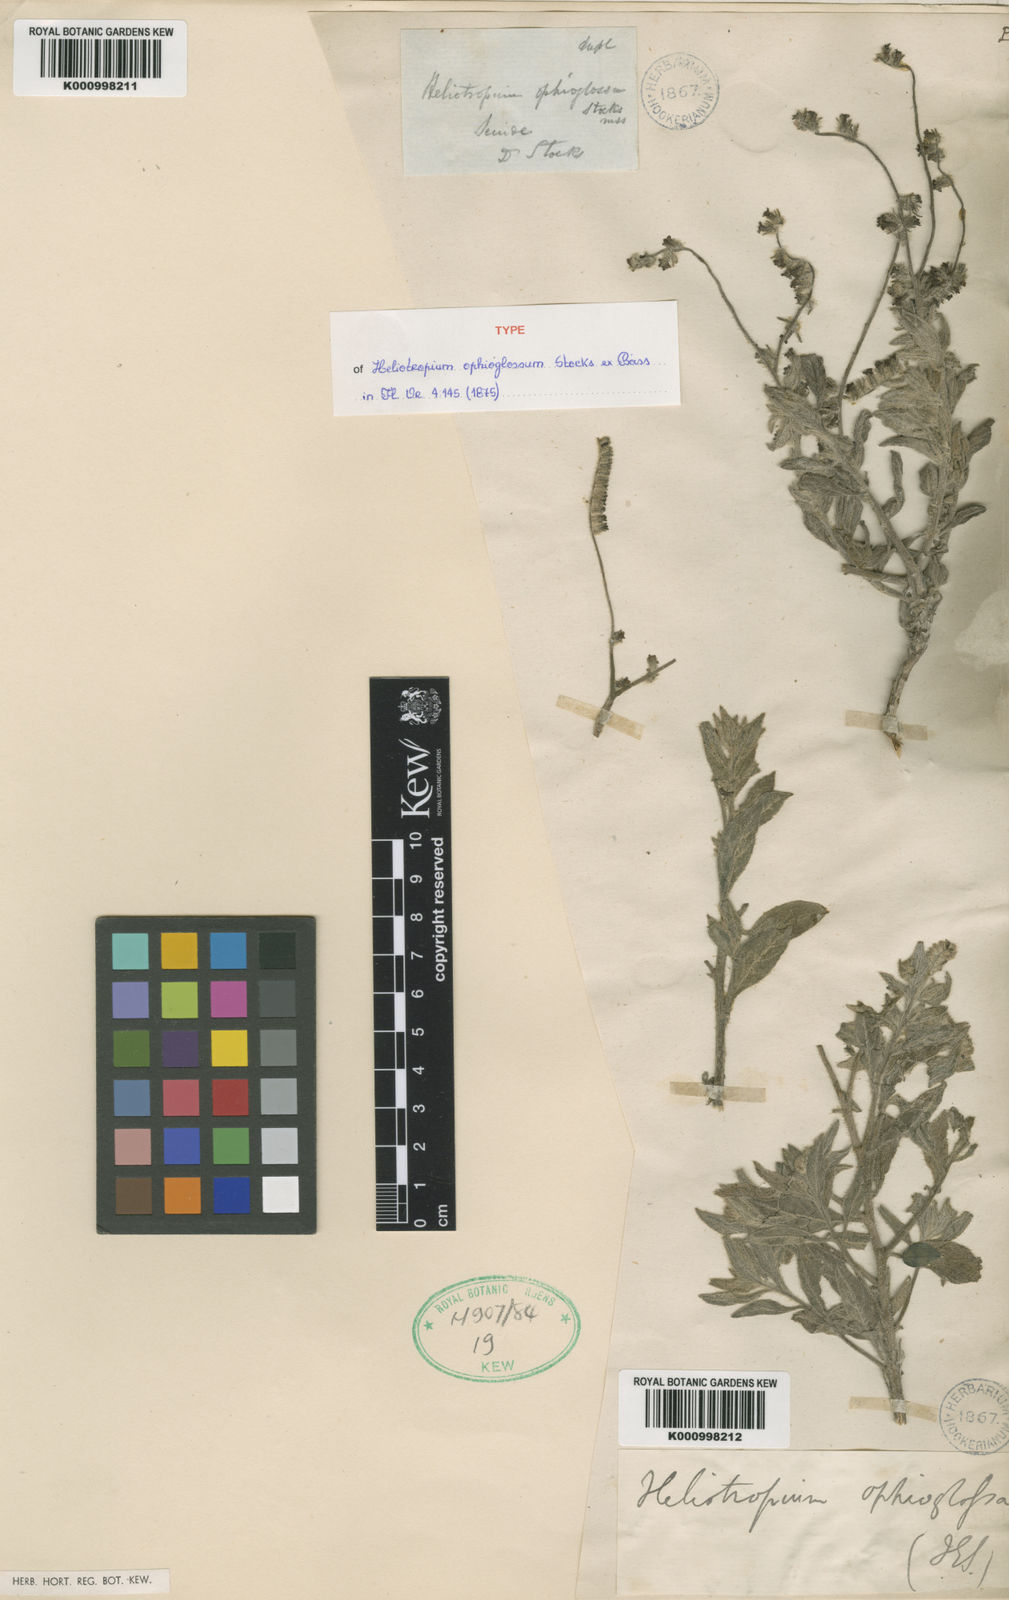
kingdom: Plantae
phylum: Tracheophyta
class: Magnoliopsida
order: Boraginales
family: Heliotropiaceae
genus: Heliotropium
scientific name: Heliotropium ophioglossum
